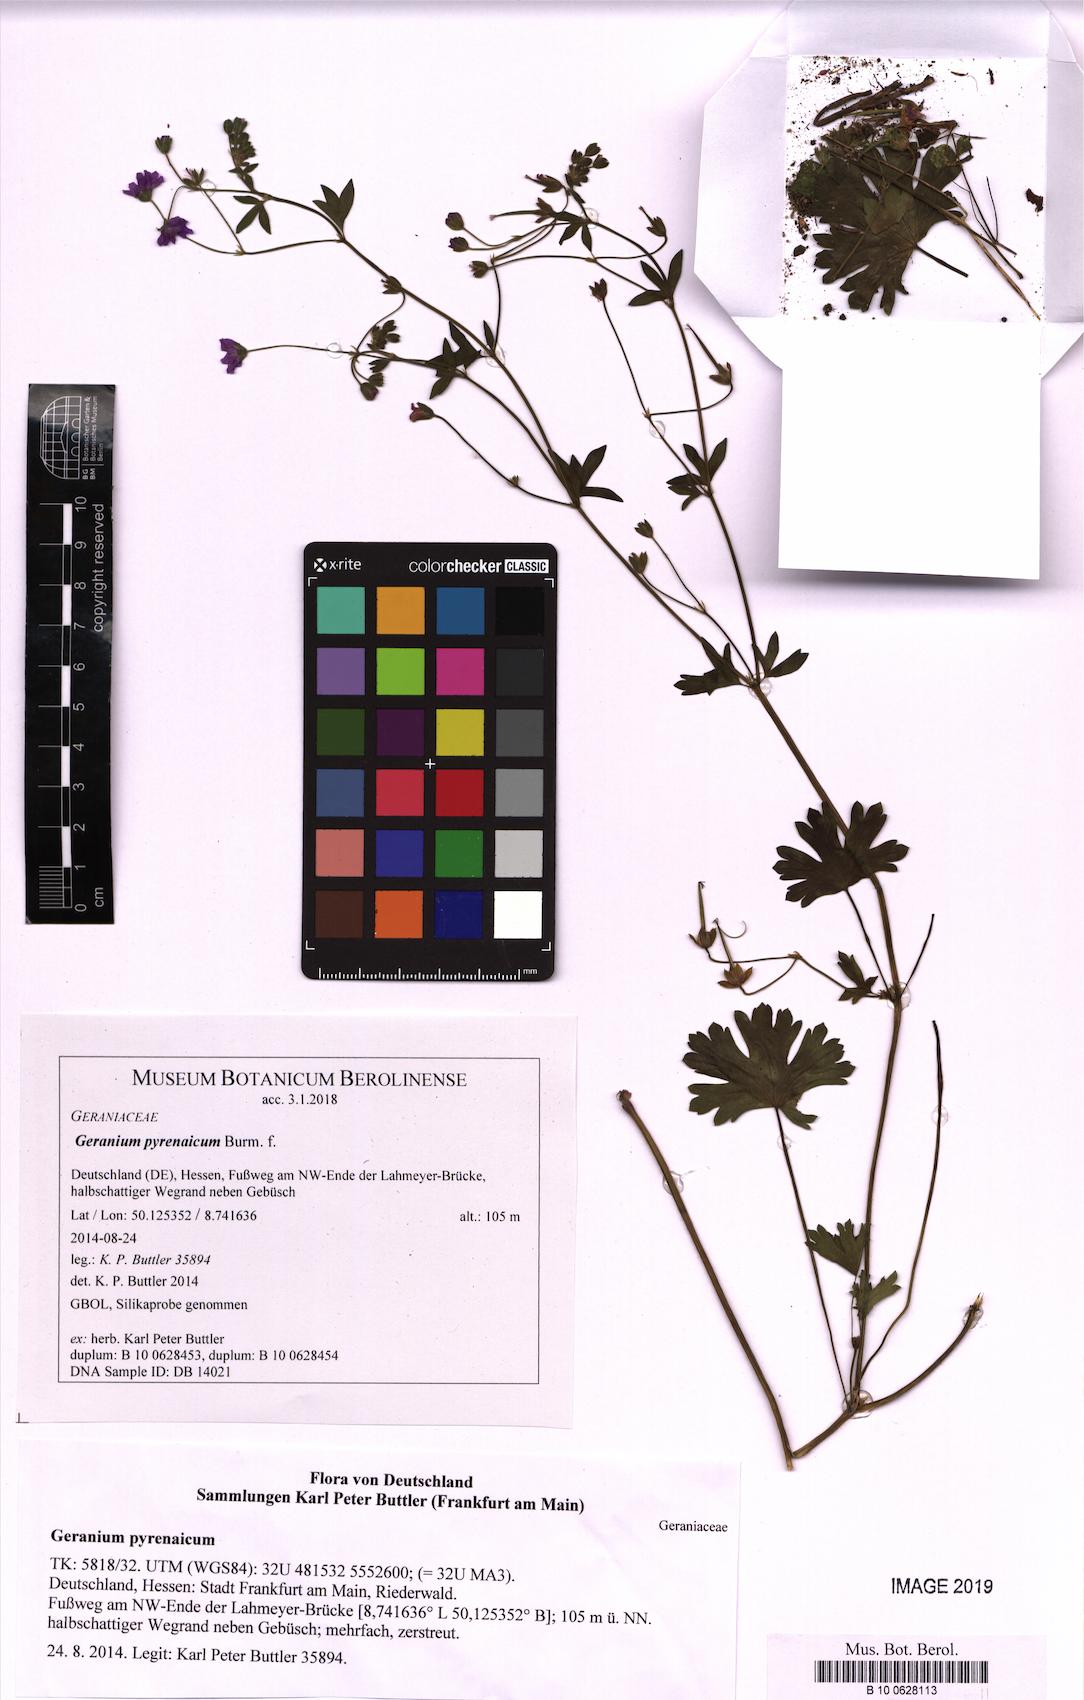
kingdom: Plantae
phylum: Tracheophyta
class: Magnoliopsida
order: Geraniales
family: Geraniaceae
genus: Geranium
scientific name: Geranium pyrenaicum
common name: Hedgerow crane's-bill
